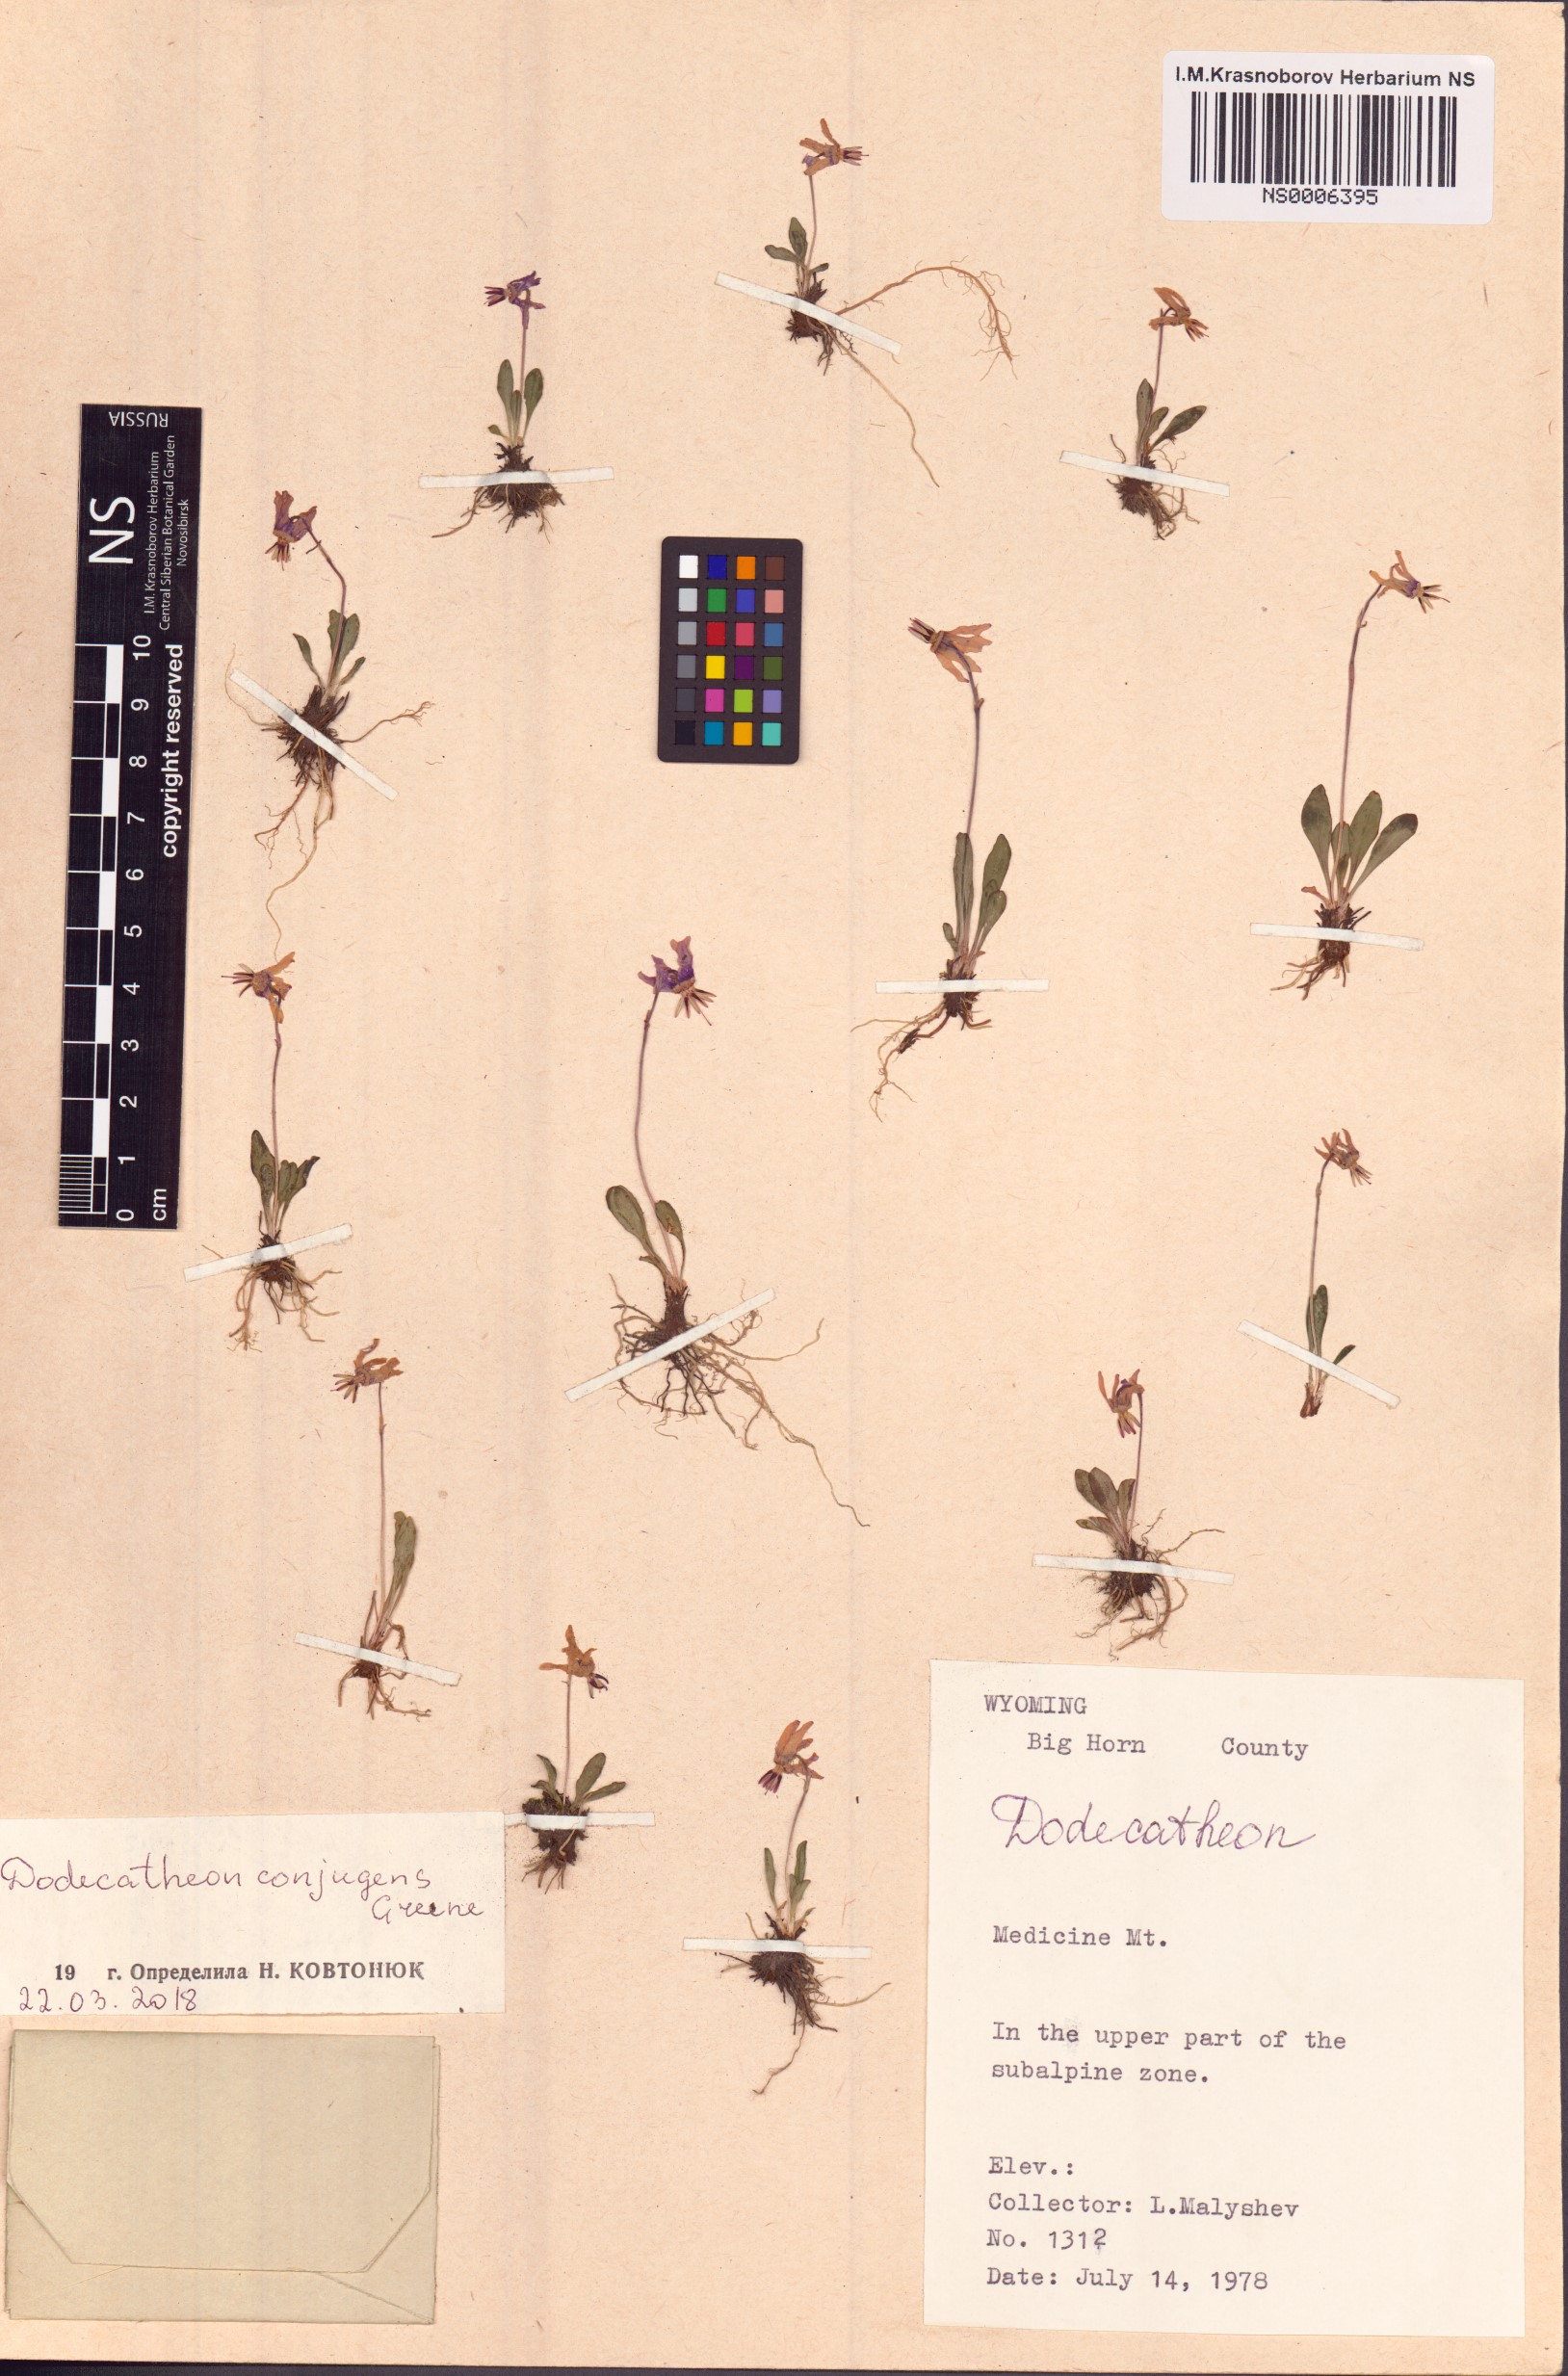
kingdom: Plantae
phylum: Tracheophyta
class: Magnoliopsida
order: Ericales
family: Primulaceae
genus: Dodecatheon
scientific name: Dodecatheon conjugens
